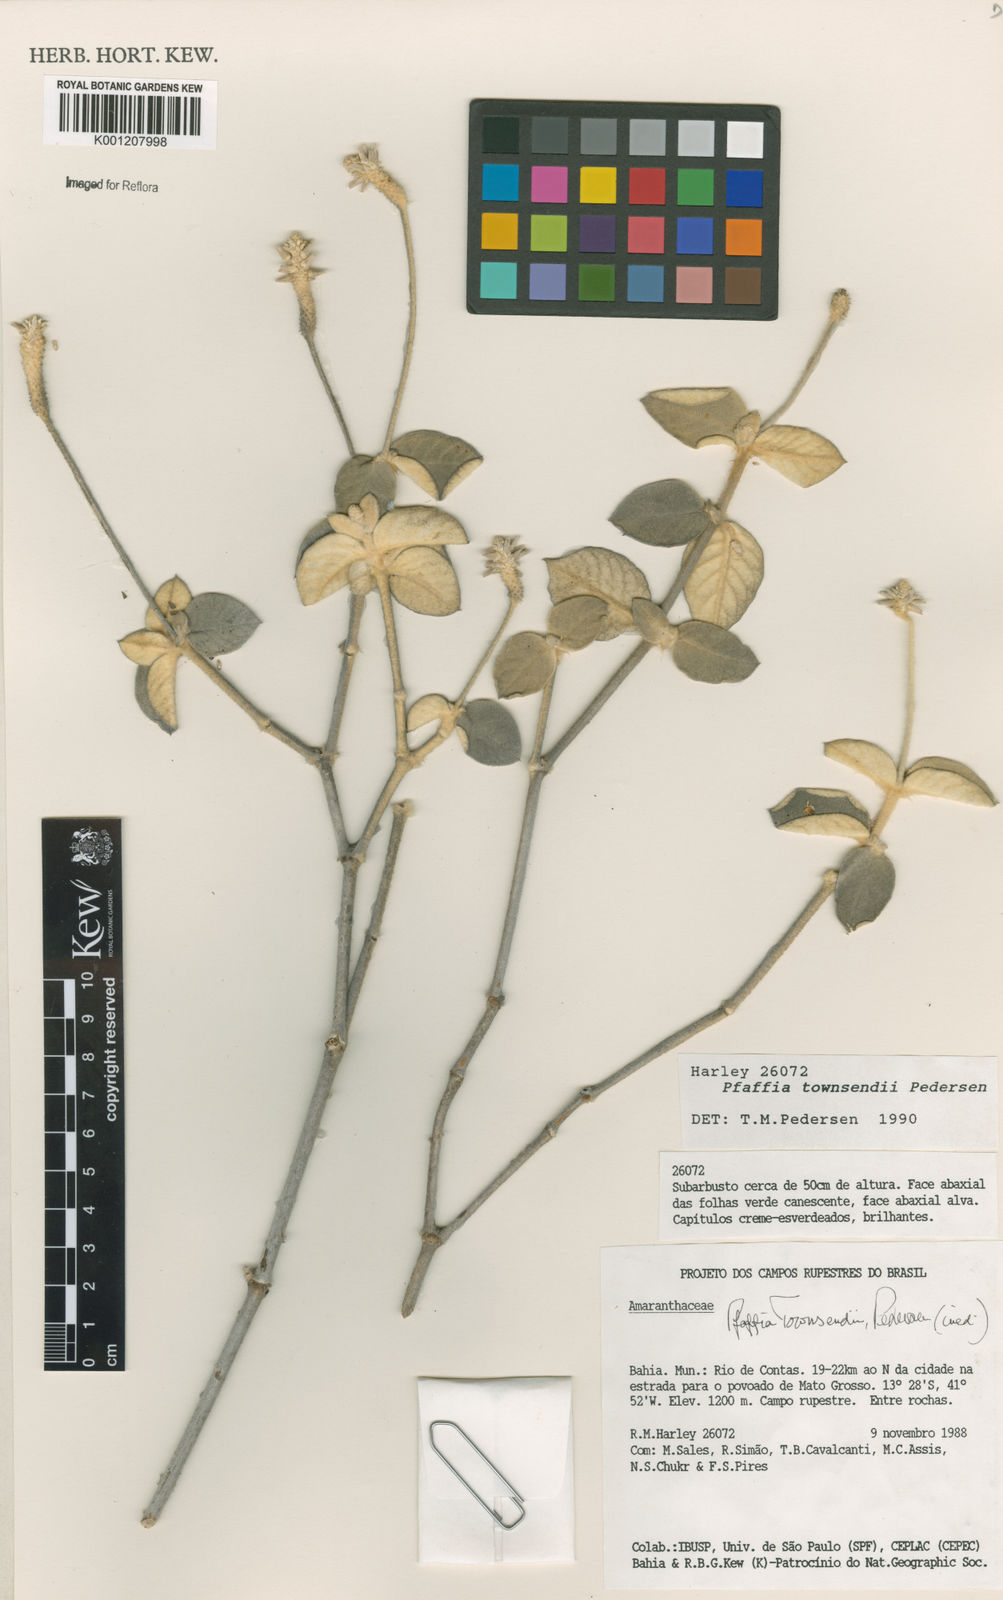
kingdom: Plantae
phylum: Tracheophyta
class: Magnoliopsida
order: Caryophyllales
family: Amaranthaceae
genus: Pfaffia
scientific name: Pfaffia townsendii
